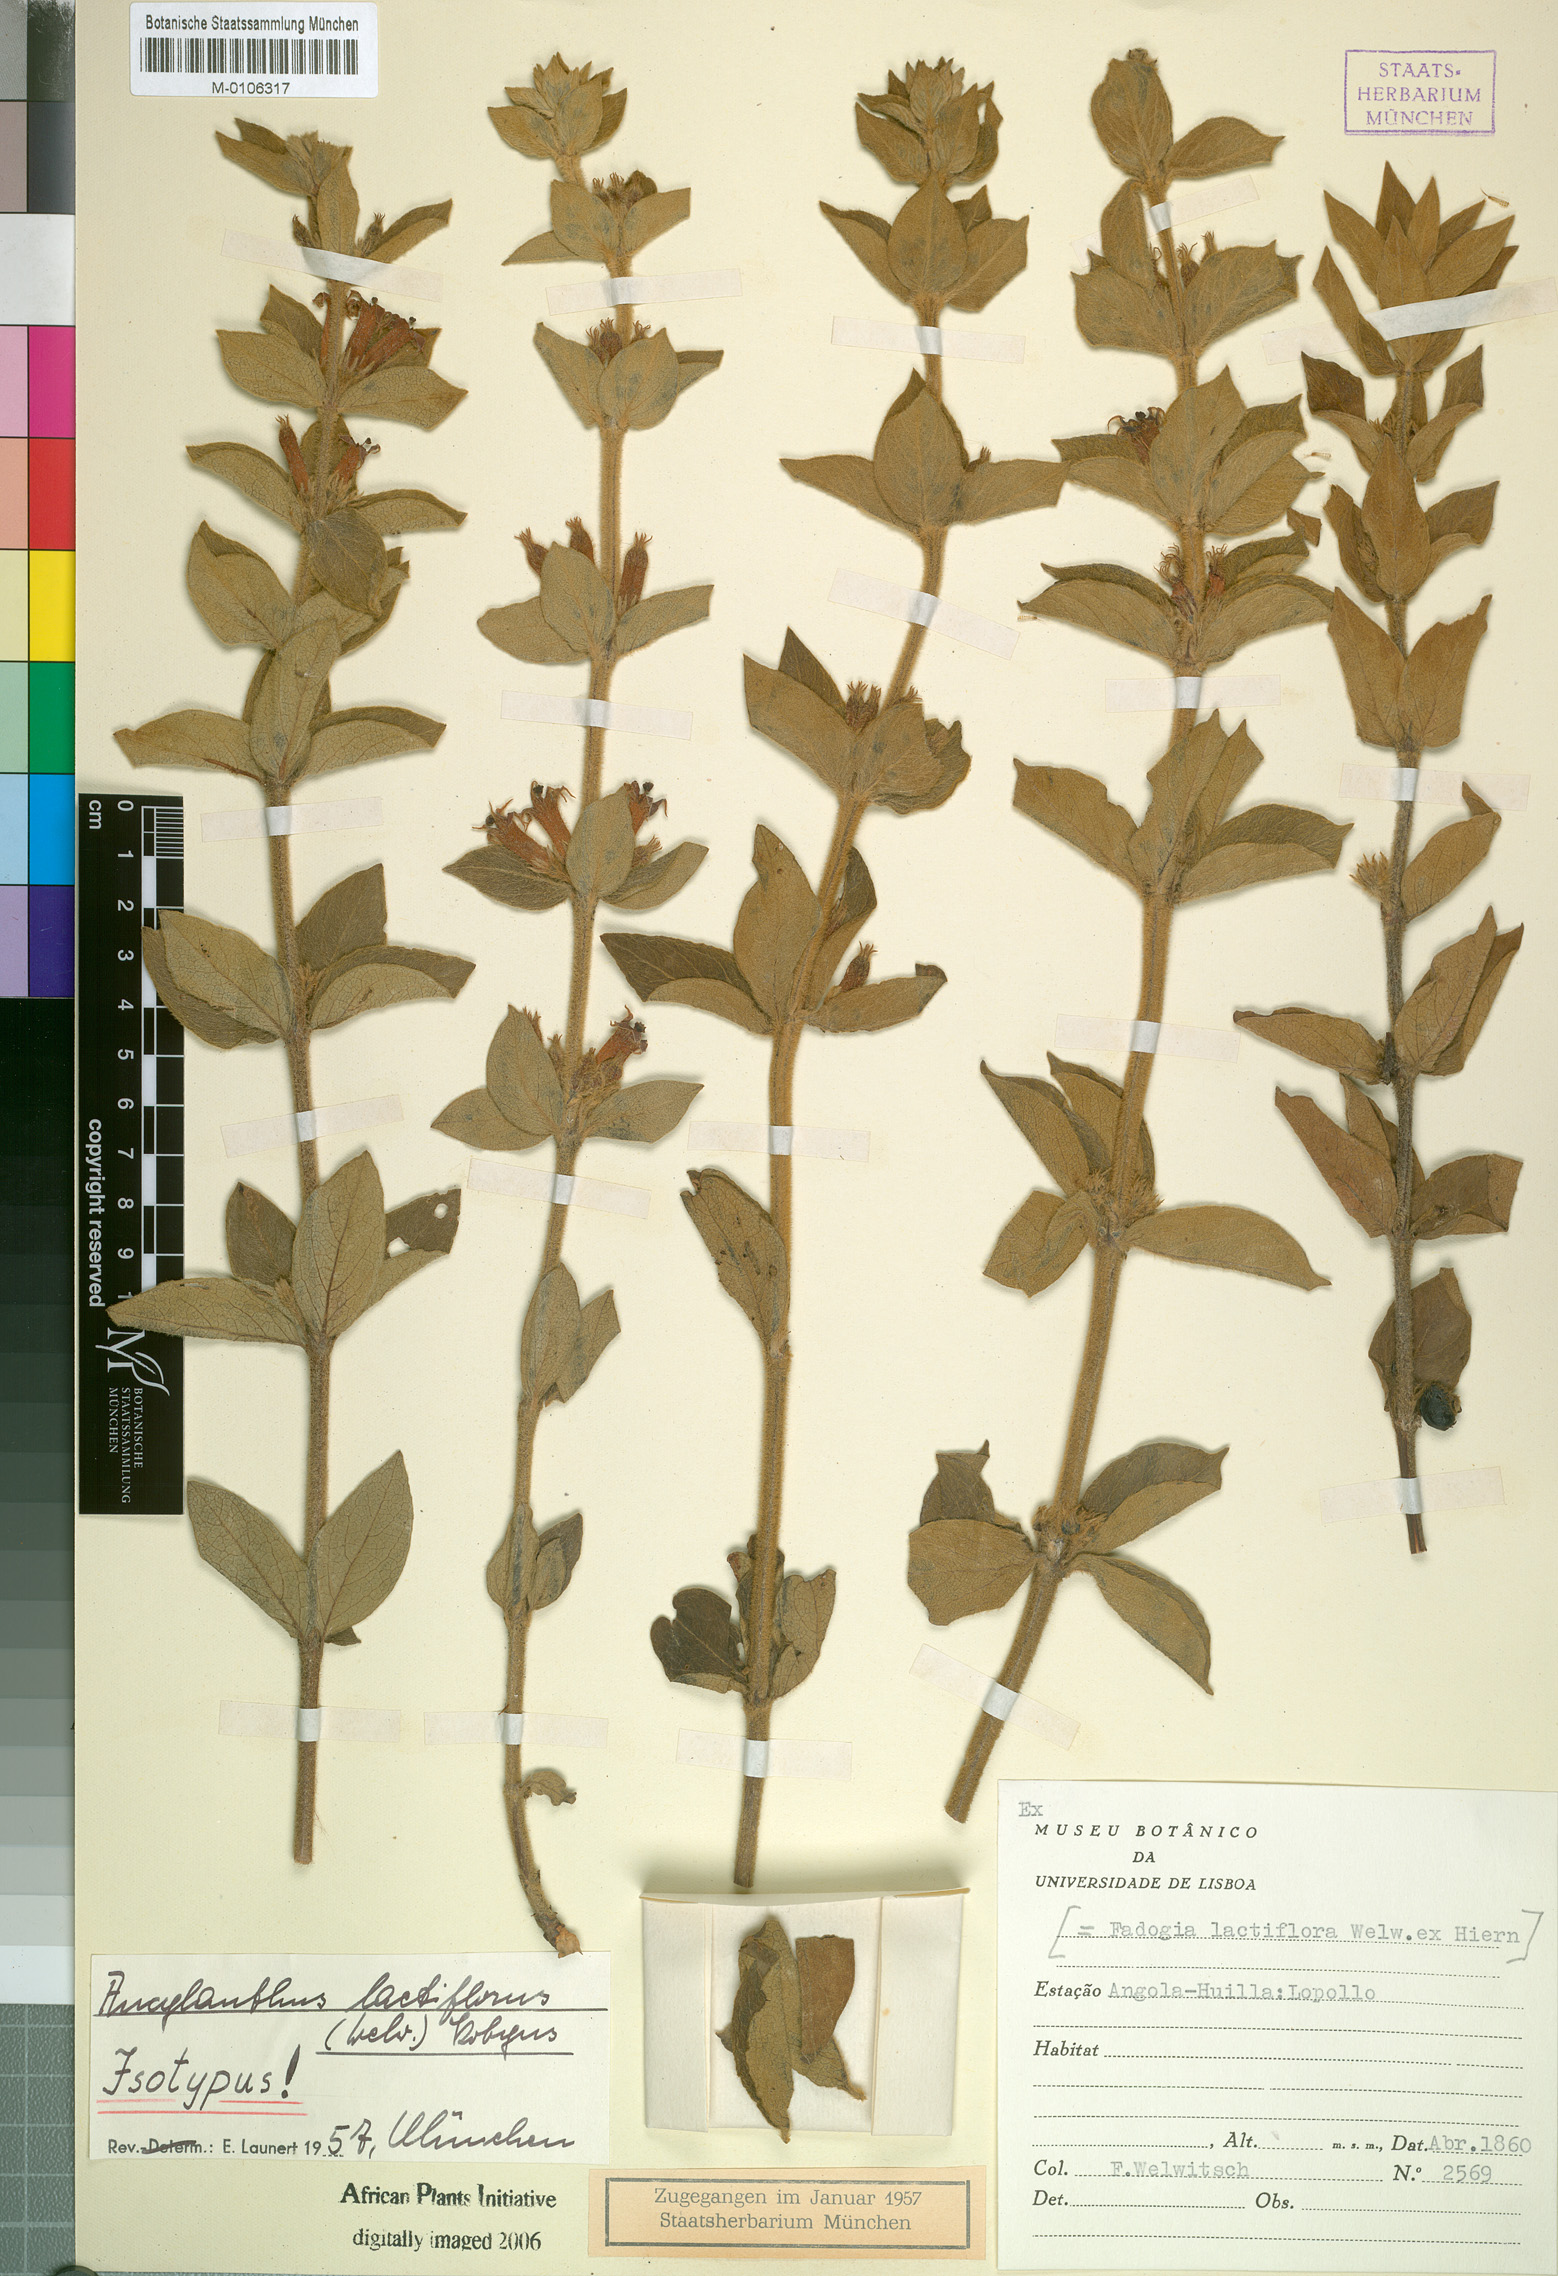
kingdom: Plantae
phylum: Tracheophyta
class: Magnoliopsida
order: Gentianales
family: Rubiaceae
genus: Fadogia
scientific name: Fadogia lactiflora
